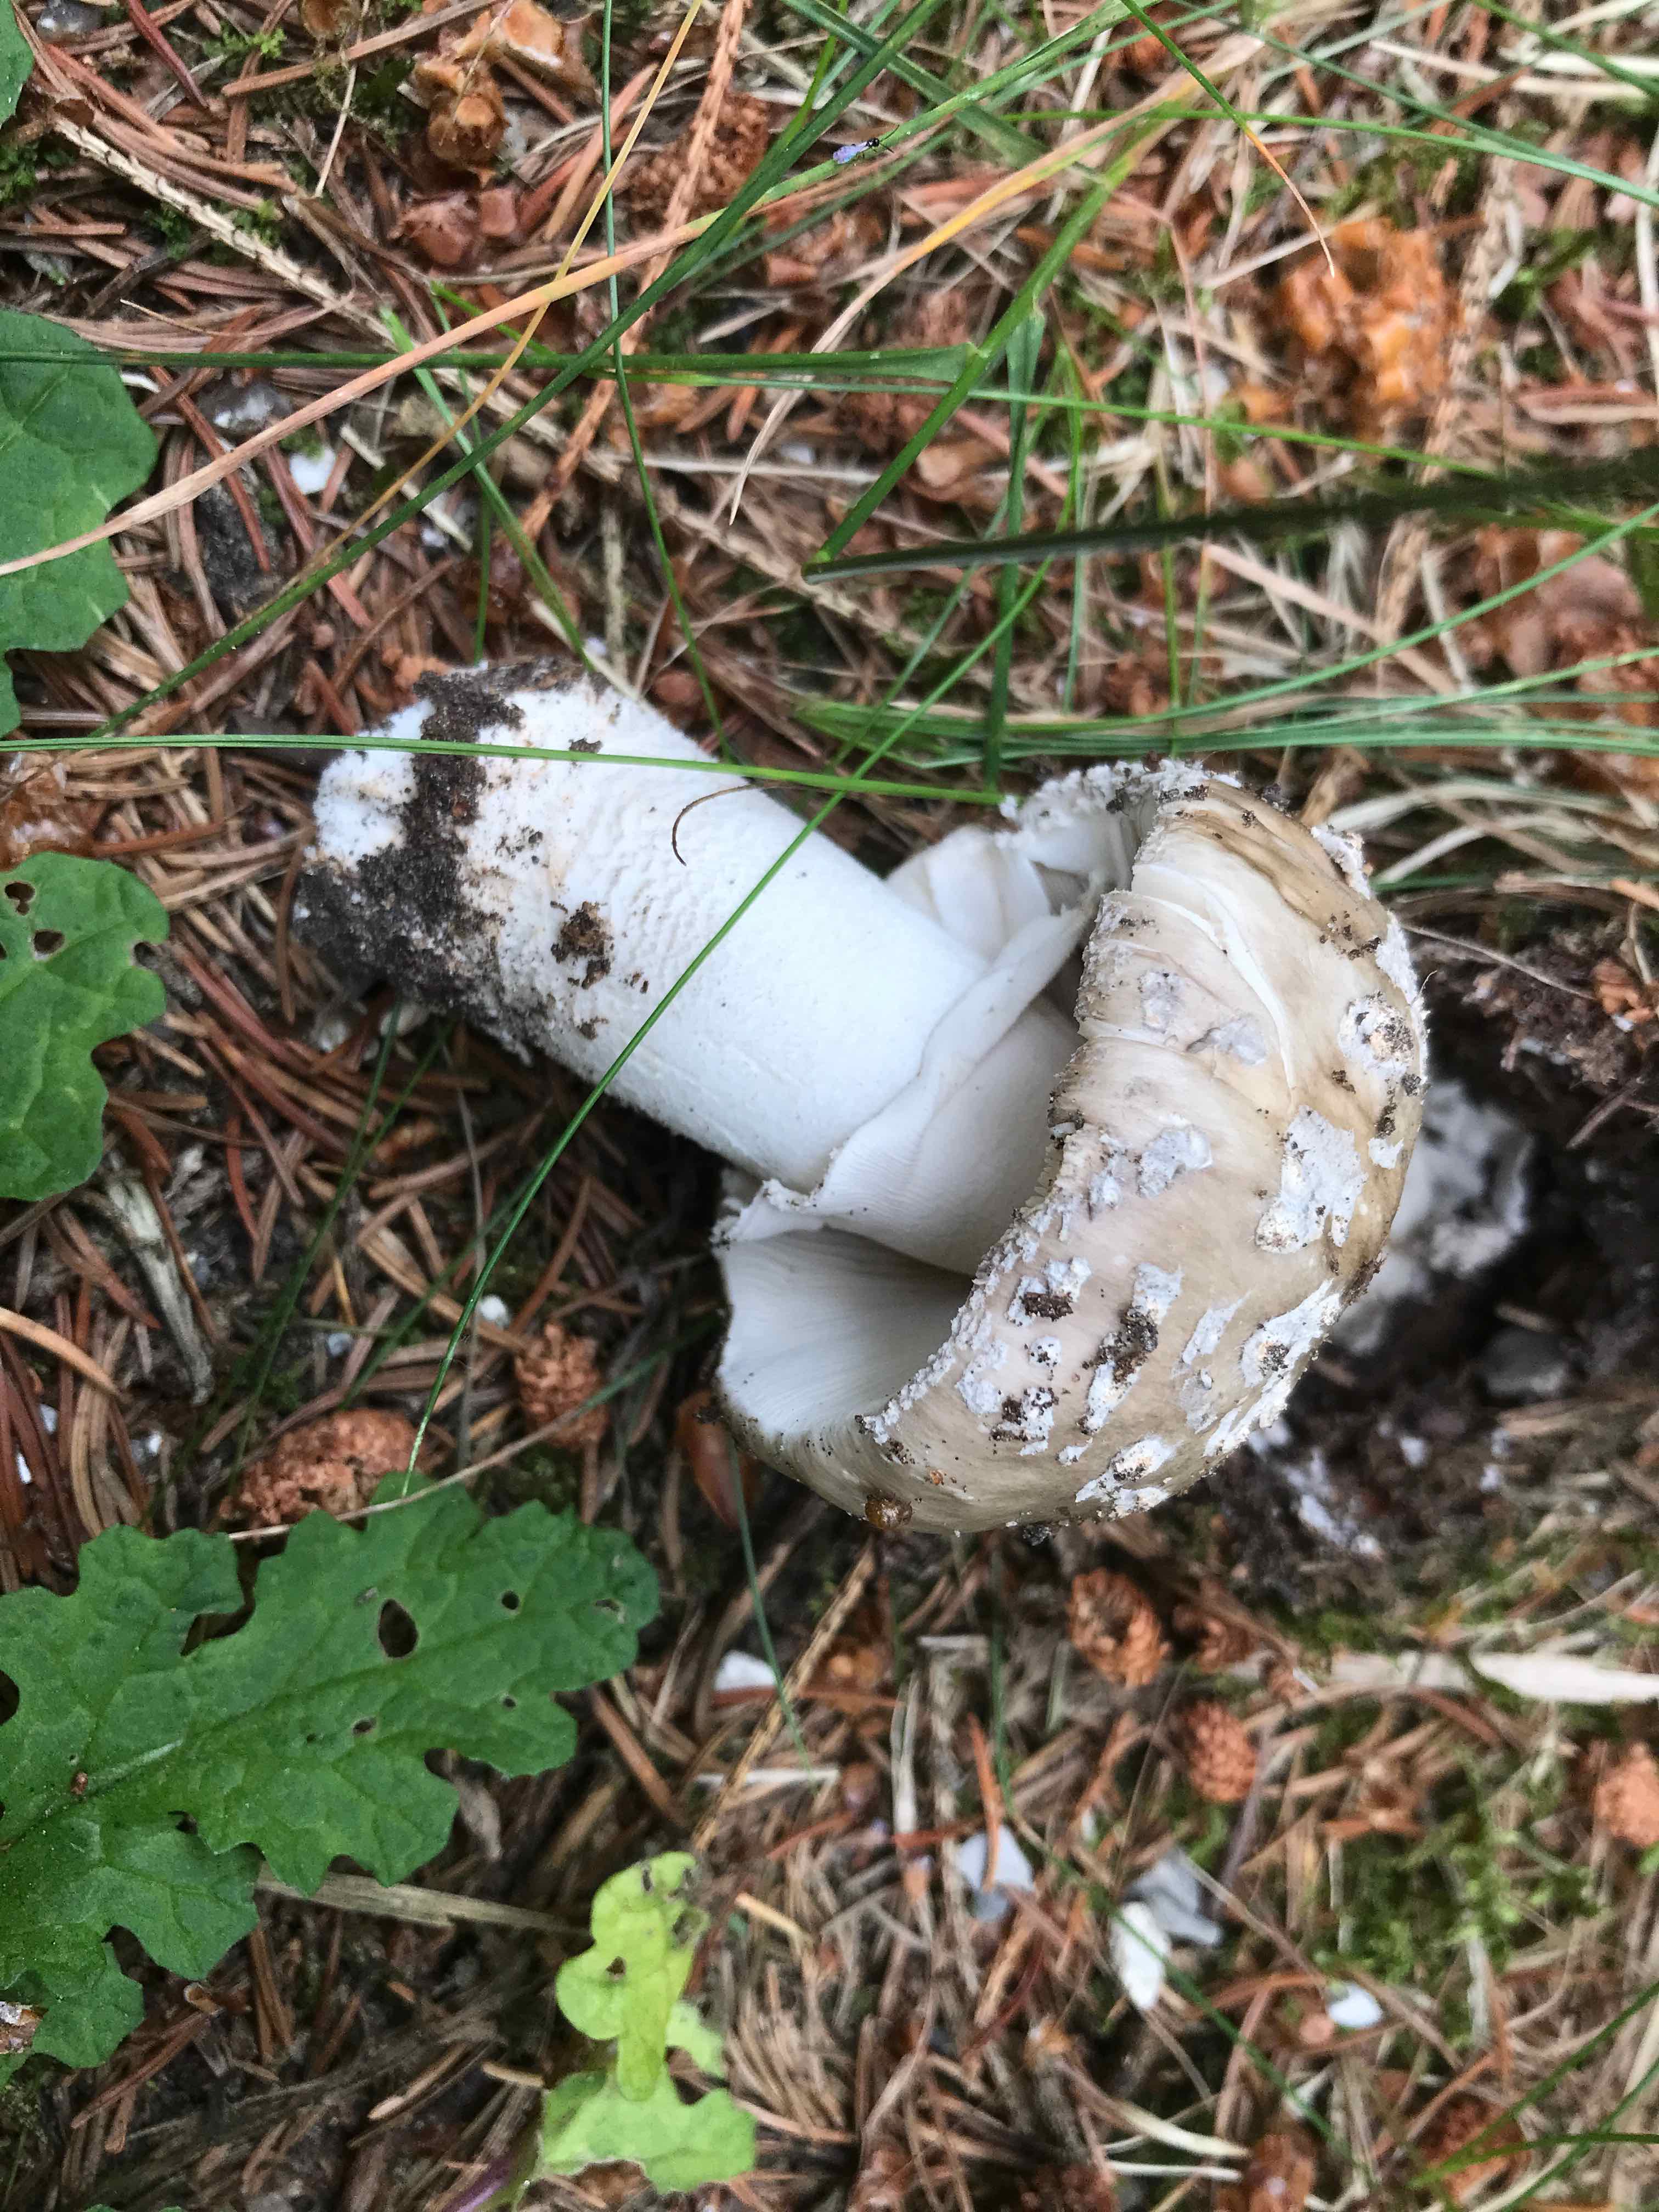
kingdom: Fungi
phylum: Basidiomycota
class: Agaricomycetes
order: Agaricales
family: Amanitaceae
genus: Amanita
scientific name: Amanita
